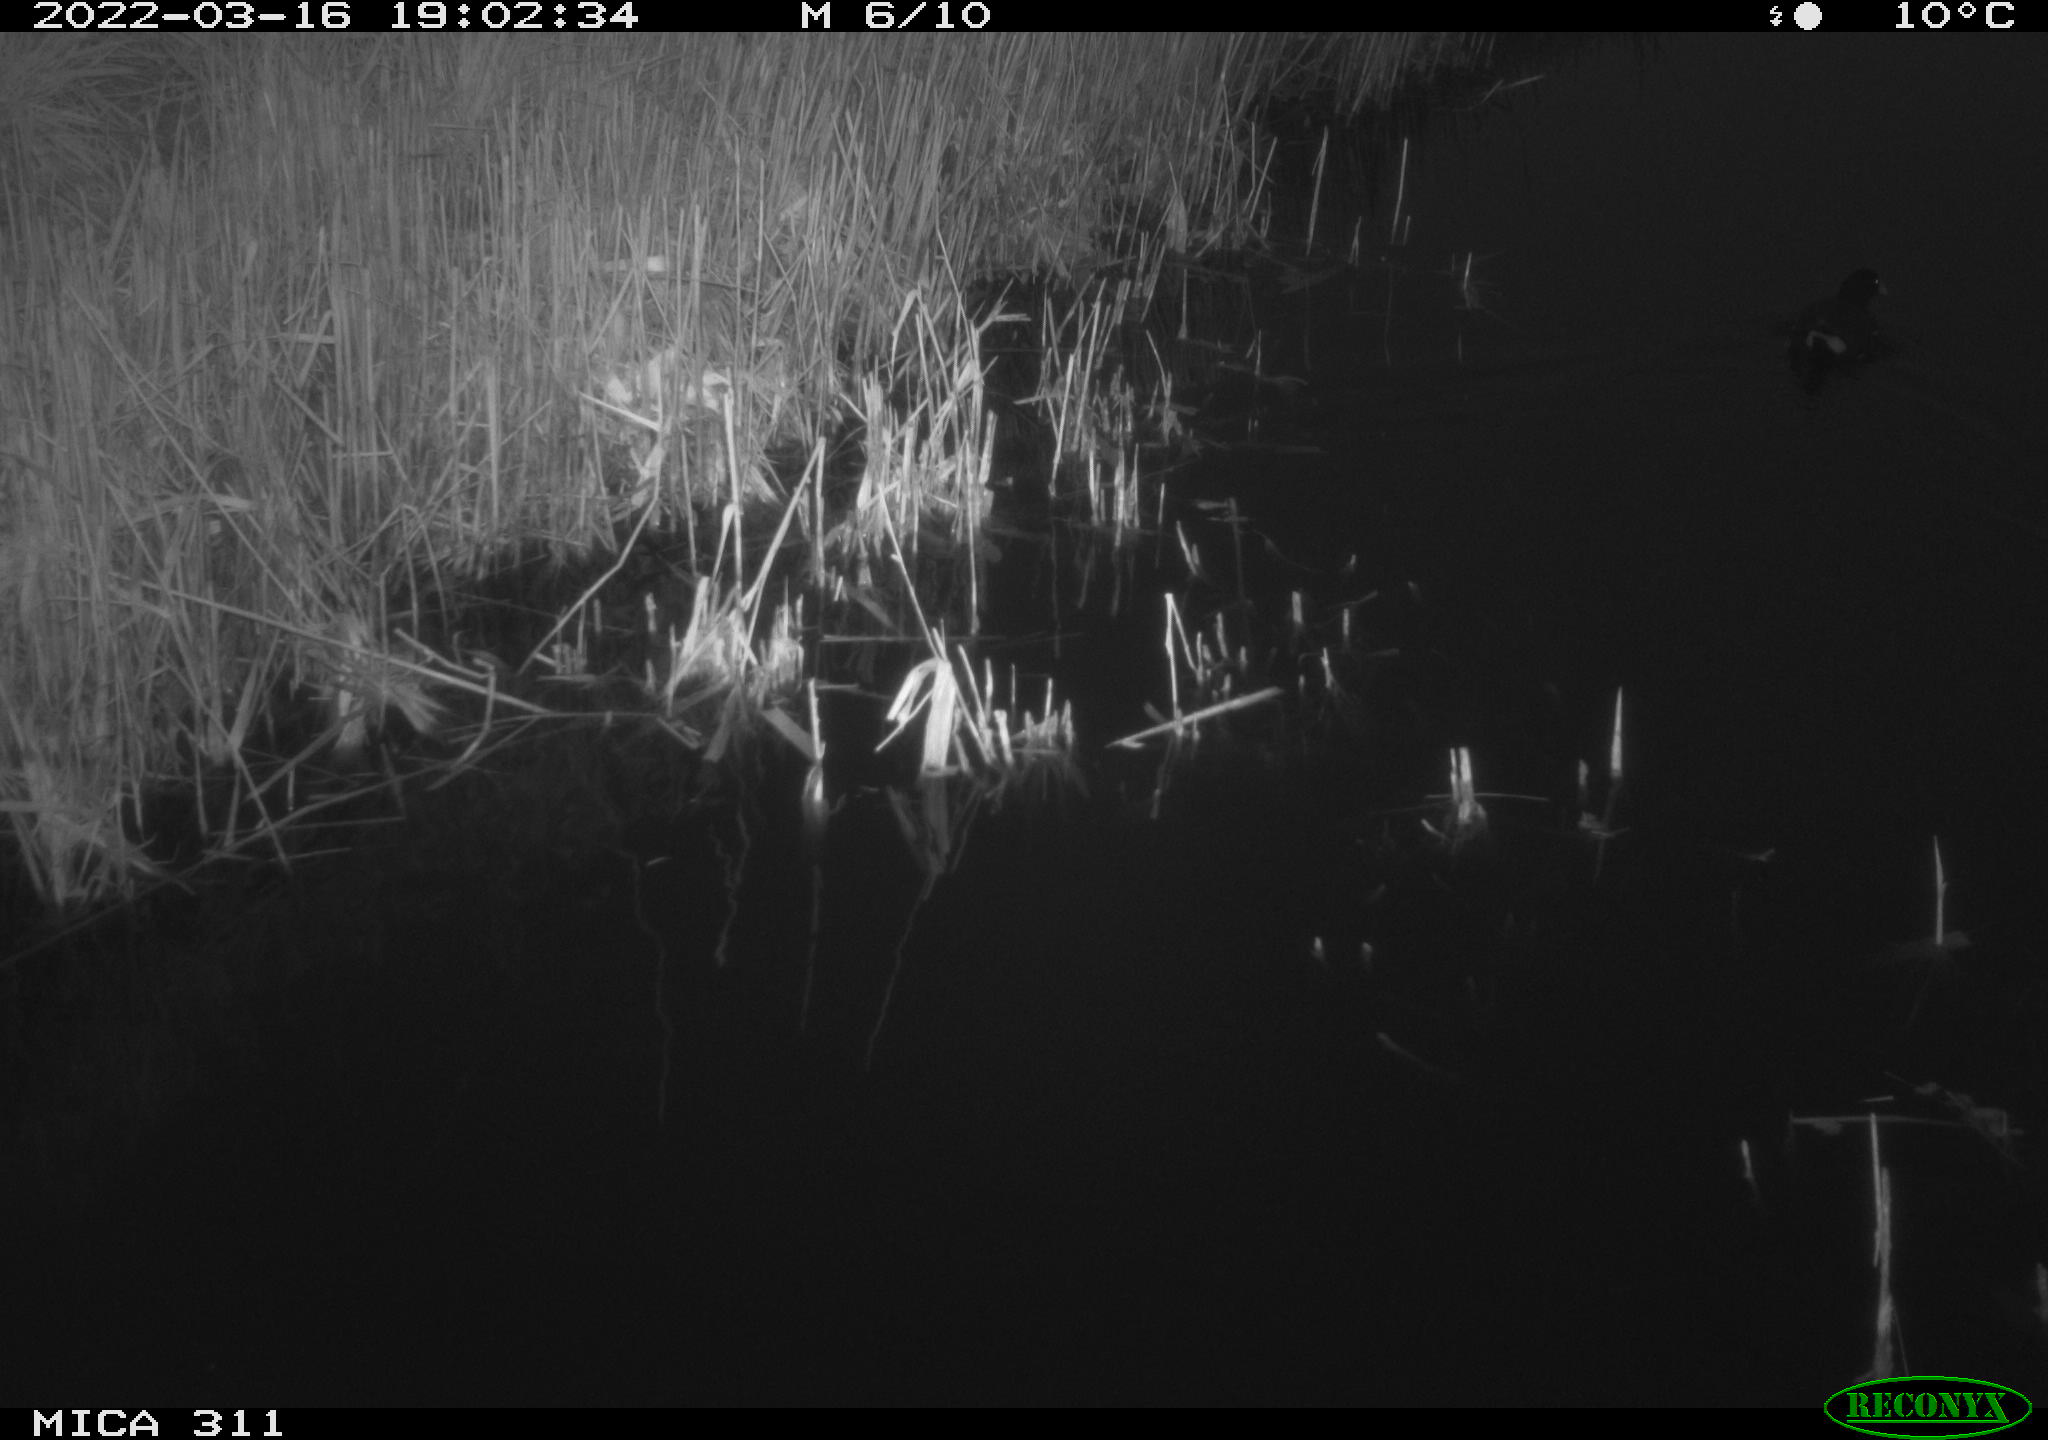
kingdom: Animalia
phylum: Chordata
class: Aves
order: Gruiformes
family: Rallidae
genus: Gallinula
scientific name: Gallinula chloropus
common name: Common moorhen
